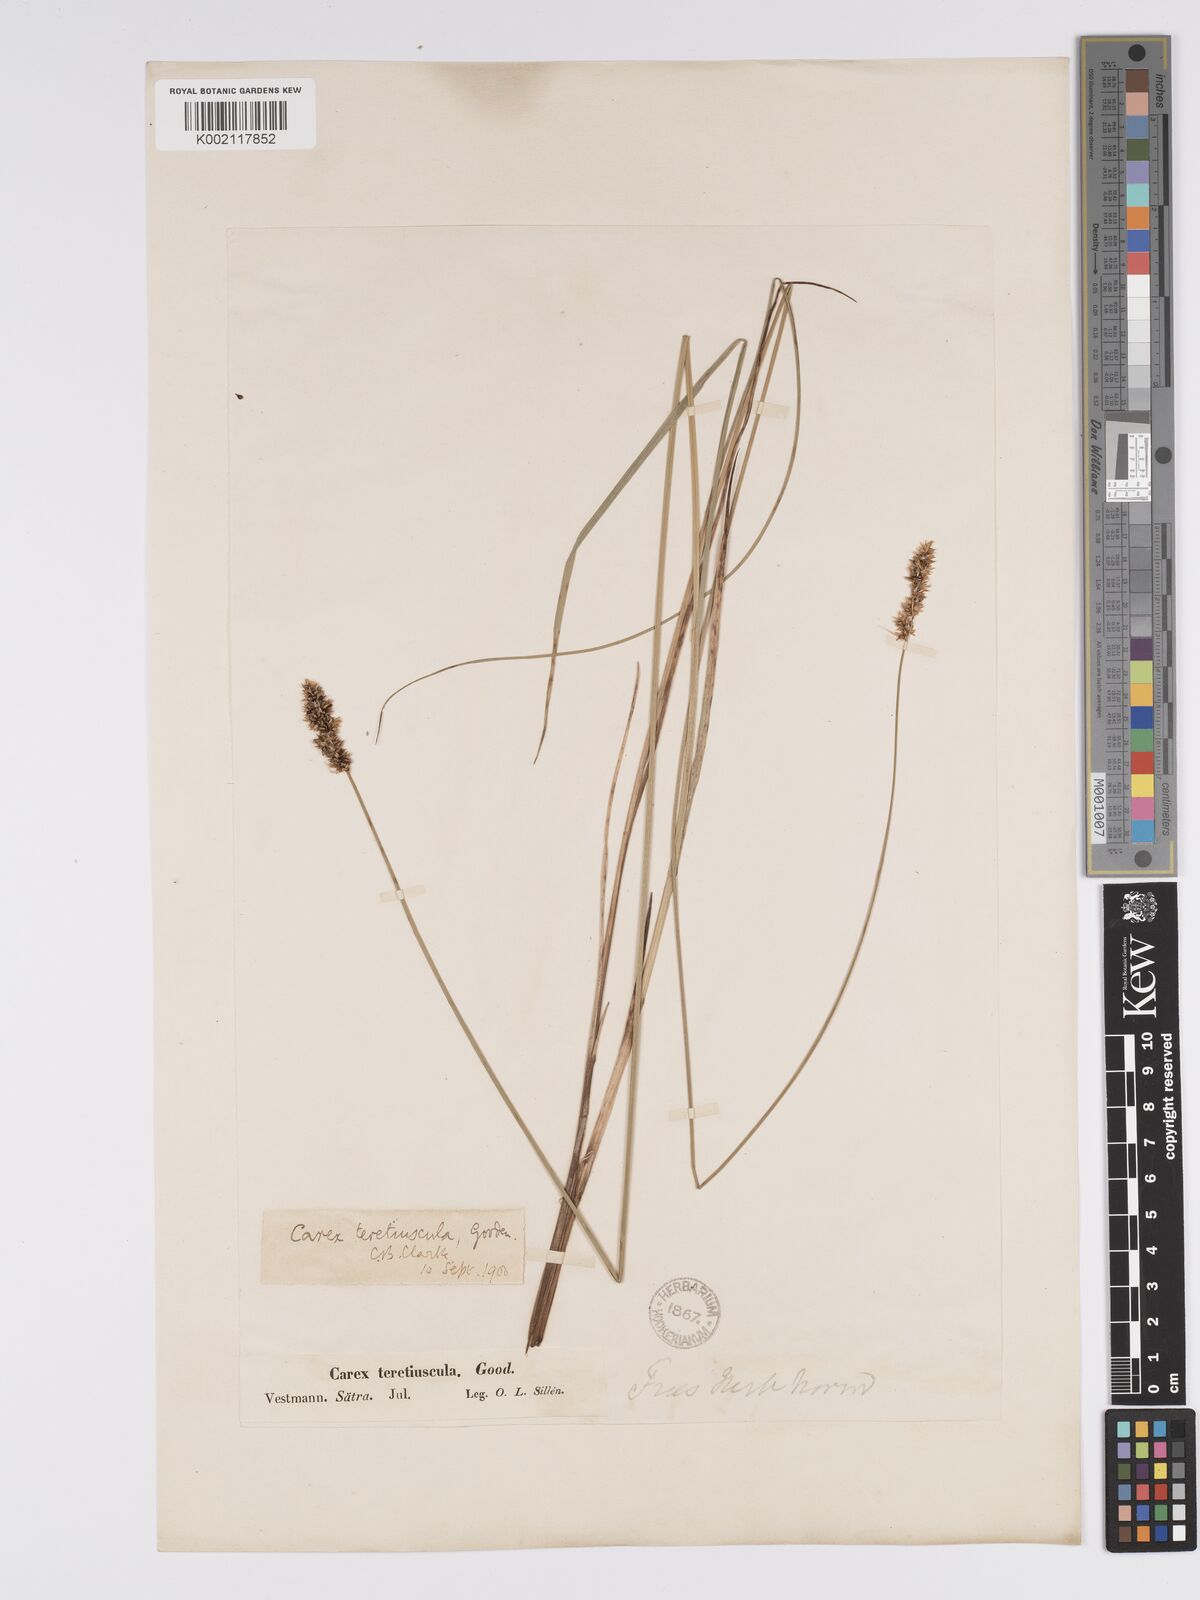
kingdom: Plantae
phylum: Tracheophyta
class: Liliopsida
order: Poales
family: Cyperaceae
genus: Carex
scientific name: Carex diandra
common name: Lesser tussock-sedge
